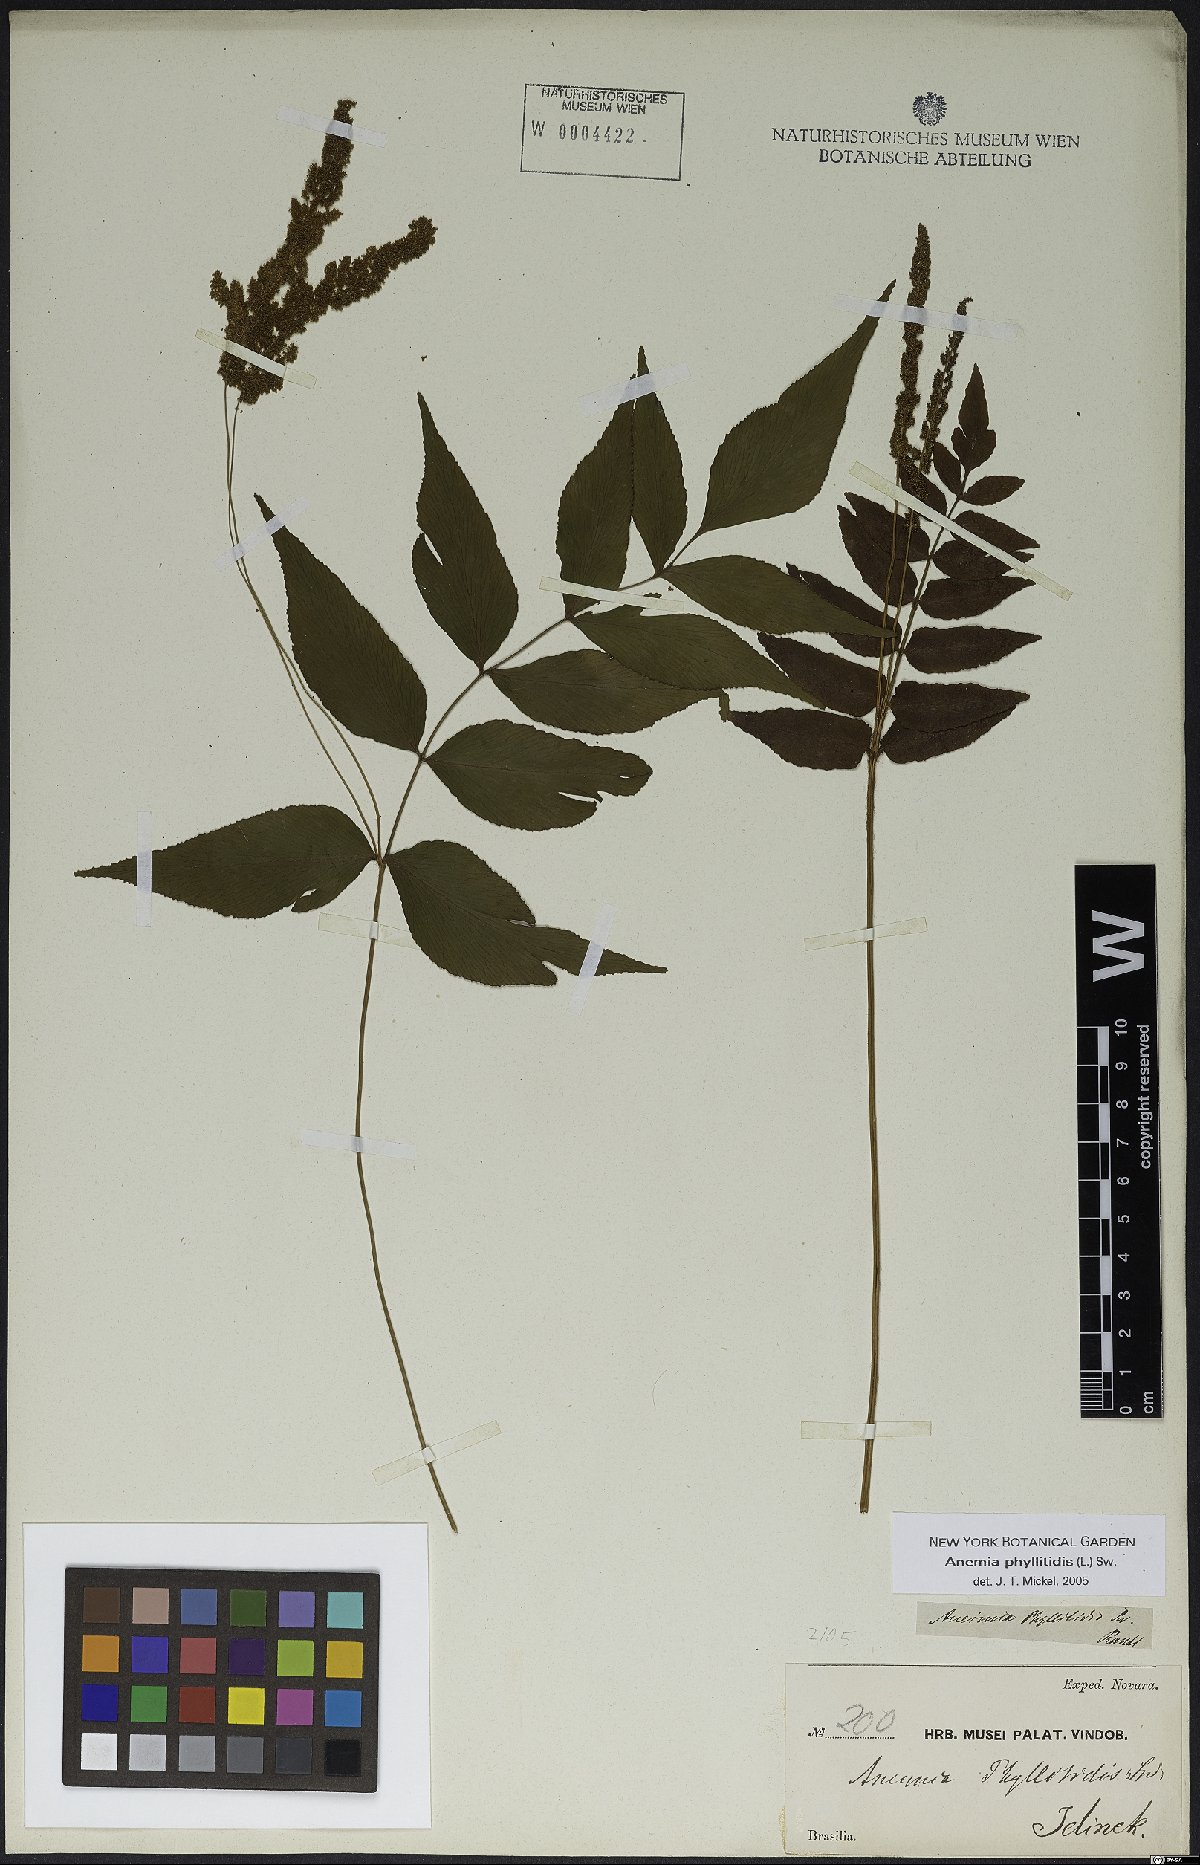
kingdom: Plantae
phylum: Tracheophyta
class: Polypodiopsida
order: Schizaeales
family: Anemiaceae
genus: Anemia
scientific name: Anemia phyllitidis
